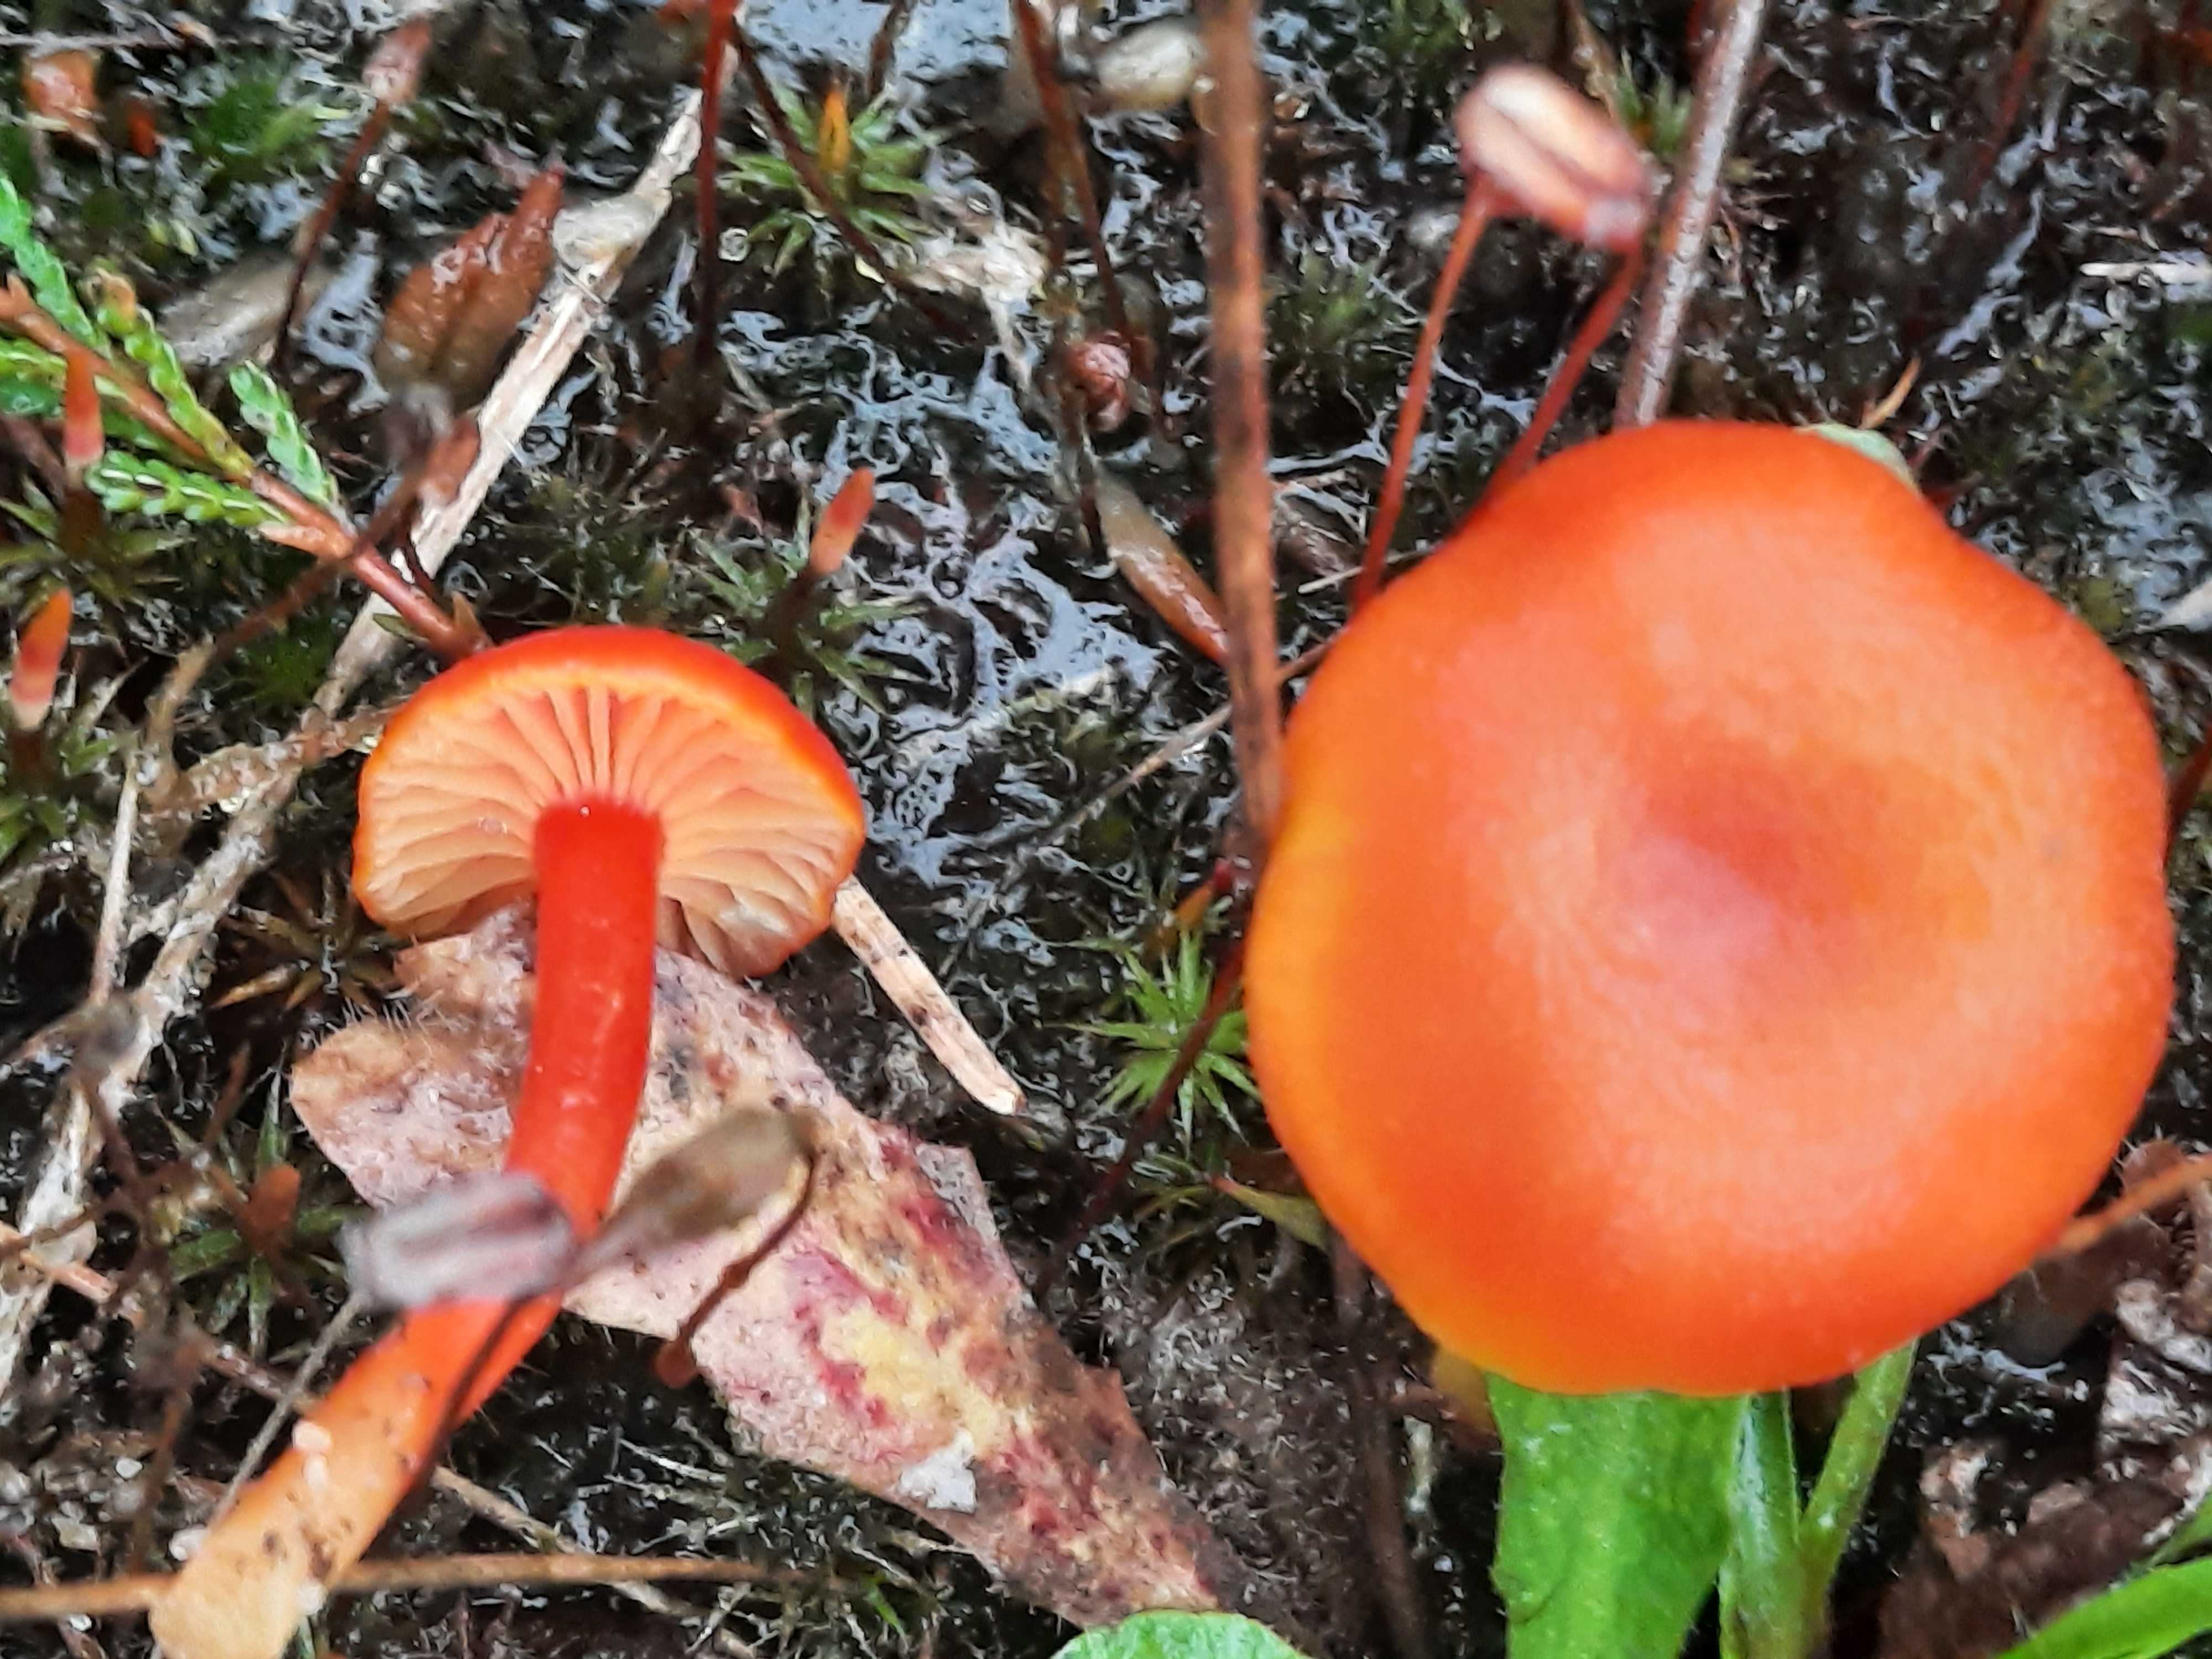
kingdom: Fungi
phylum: Basidiomycota
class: Agaricomycetes
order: Agaricales
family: Hygrophoraceae
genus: Hygrocybe
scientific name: Hygrocybe miniata
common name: mønje-vokshat
